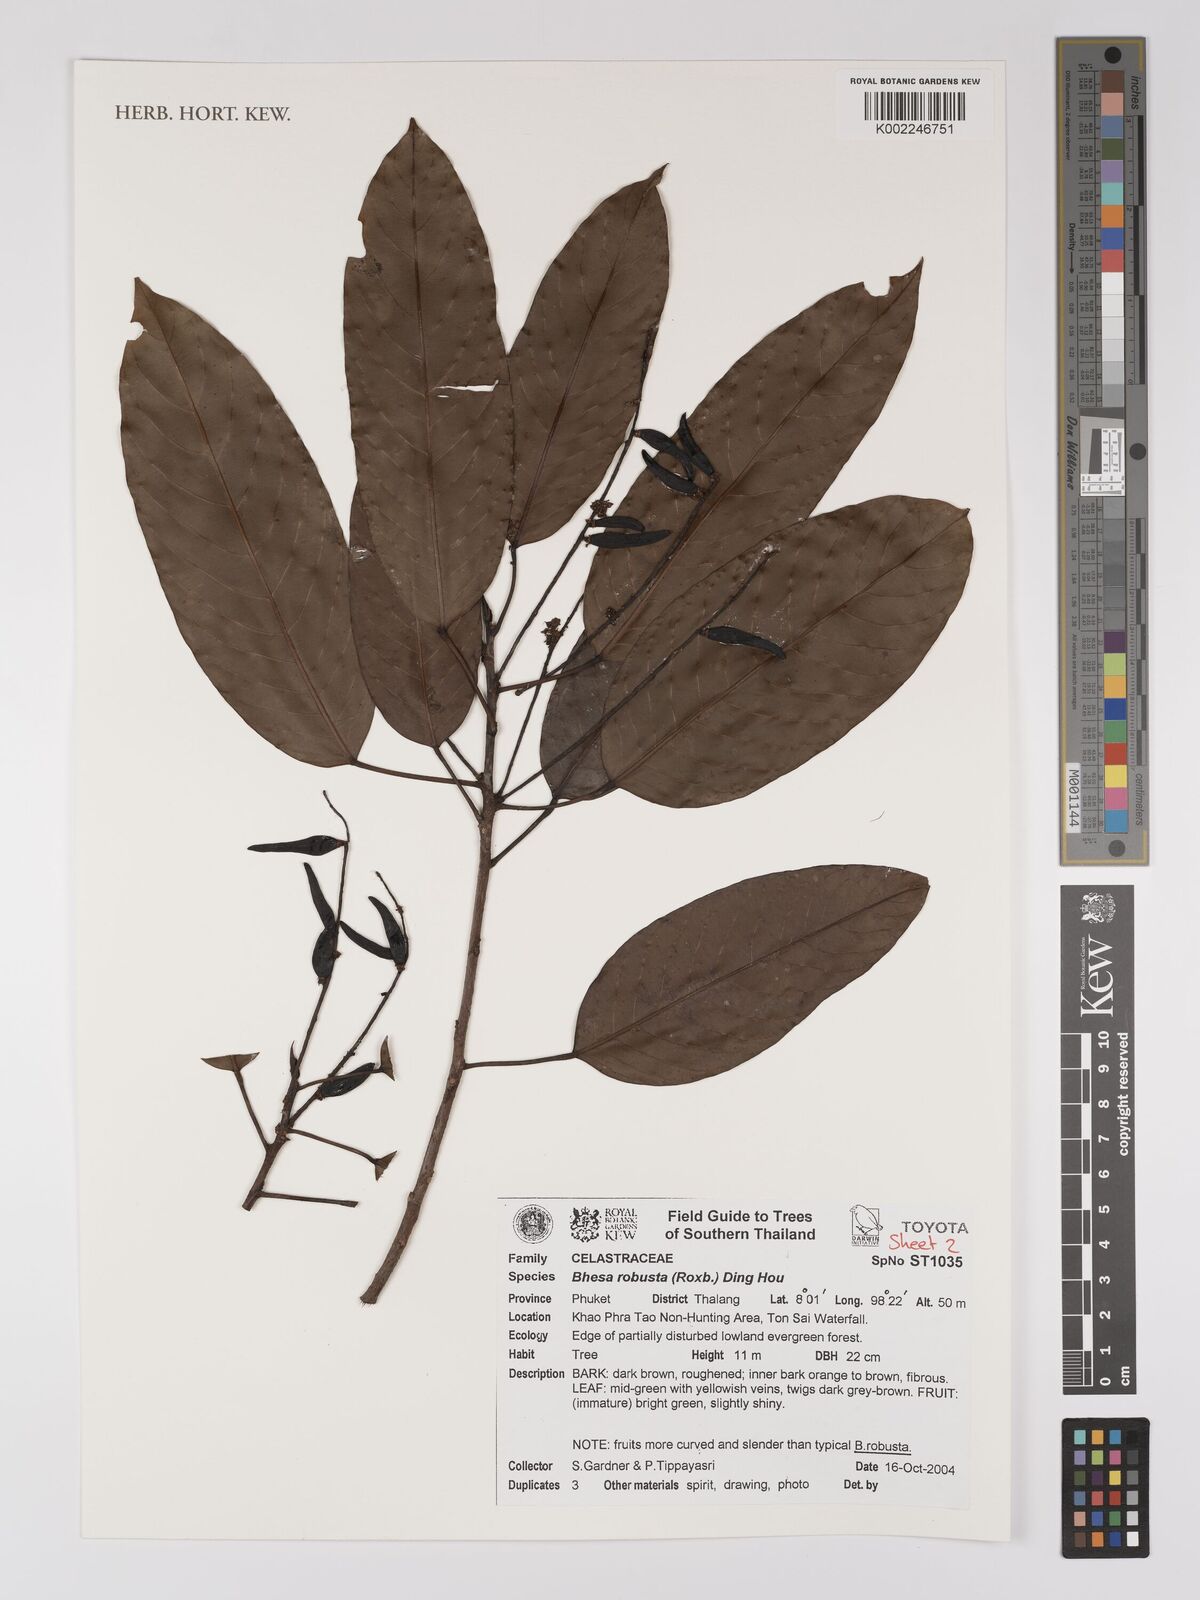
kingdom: Plantae
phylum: Tracheophyta
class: Magnoliopsida
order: Malpighiales
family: Centroplacaceae
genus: Bhesa
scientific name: Bhesa robusta
